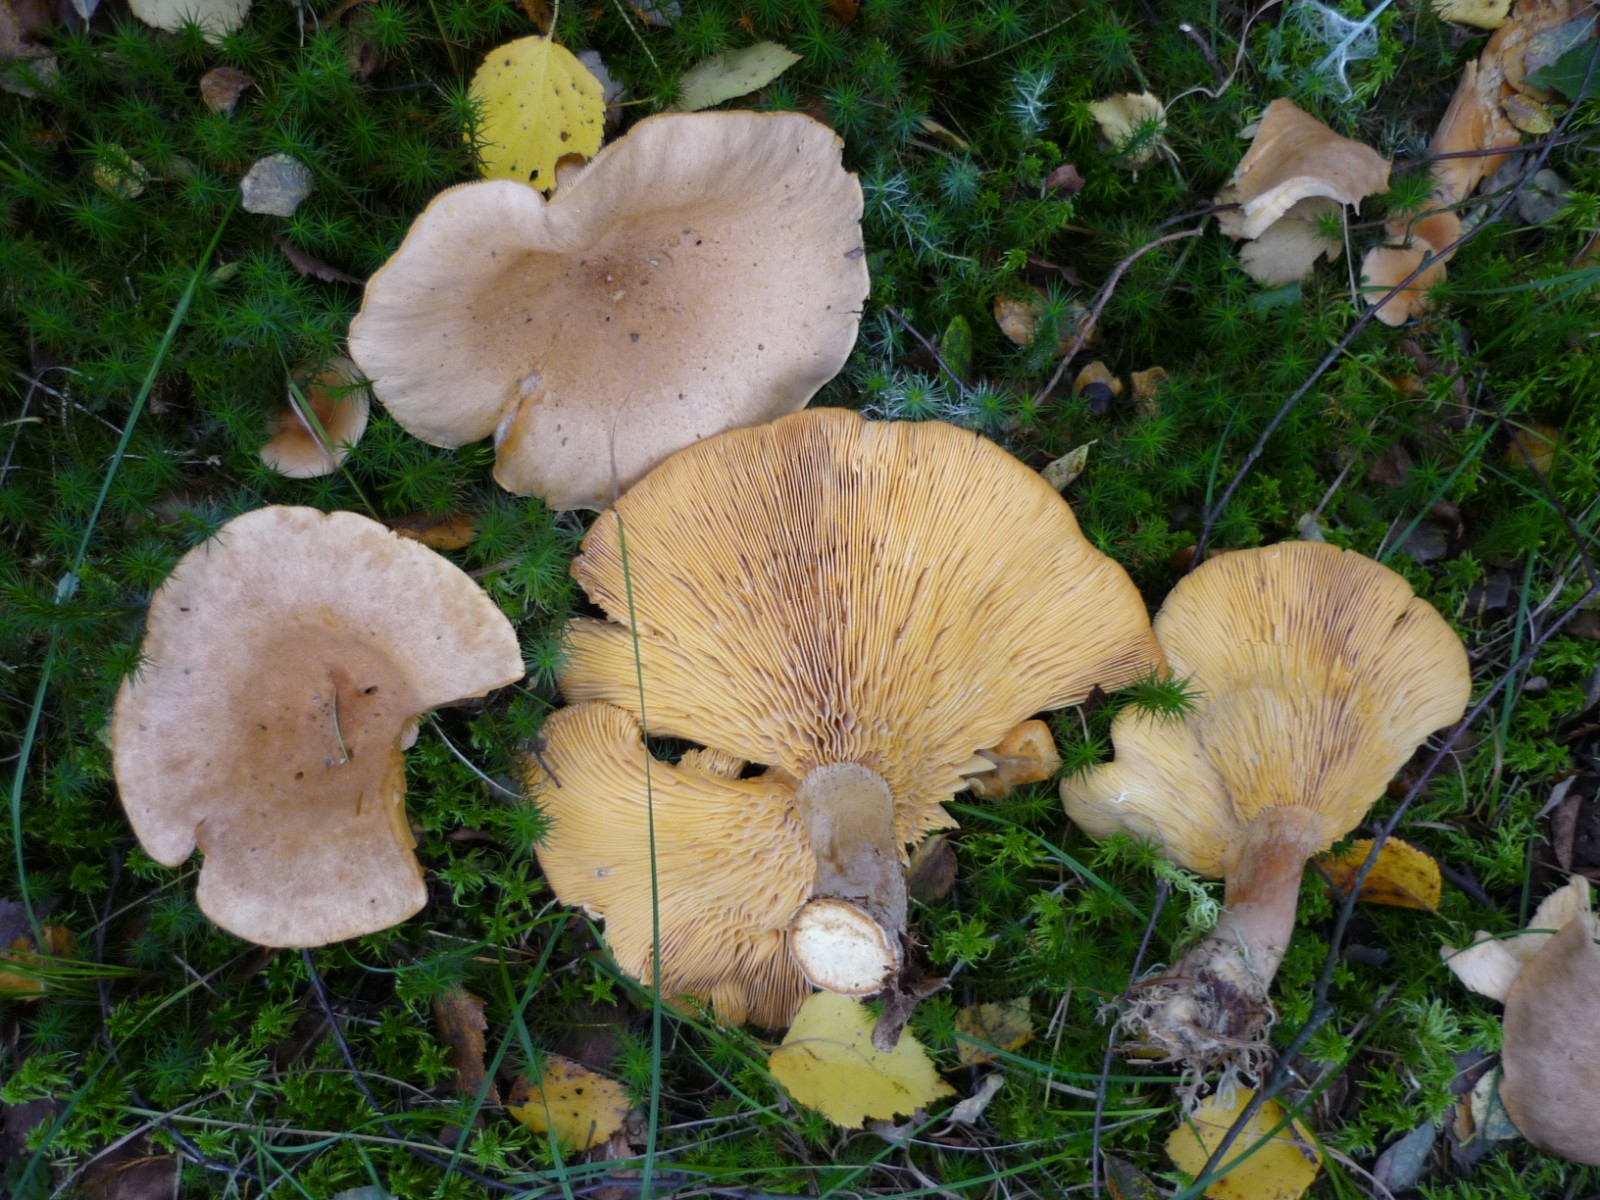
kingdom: Fungi
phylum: Basidiomycota
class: Agaricomycetes
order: Russulales
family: Russulaceae
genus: Lactarius
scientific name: Lactarius helvus
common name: mose-mælkehat
